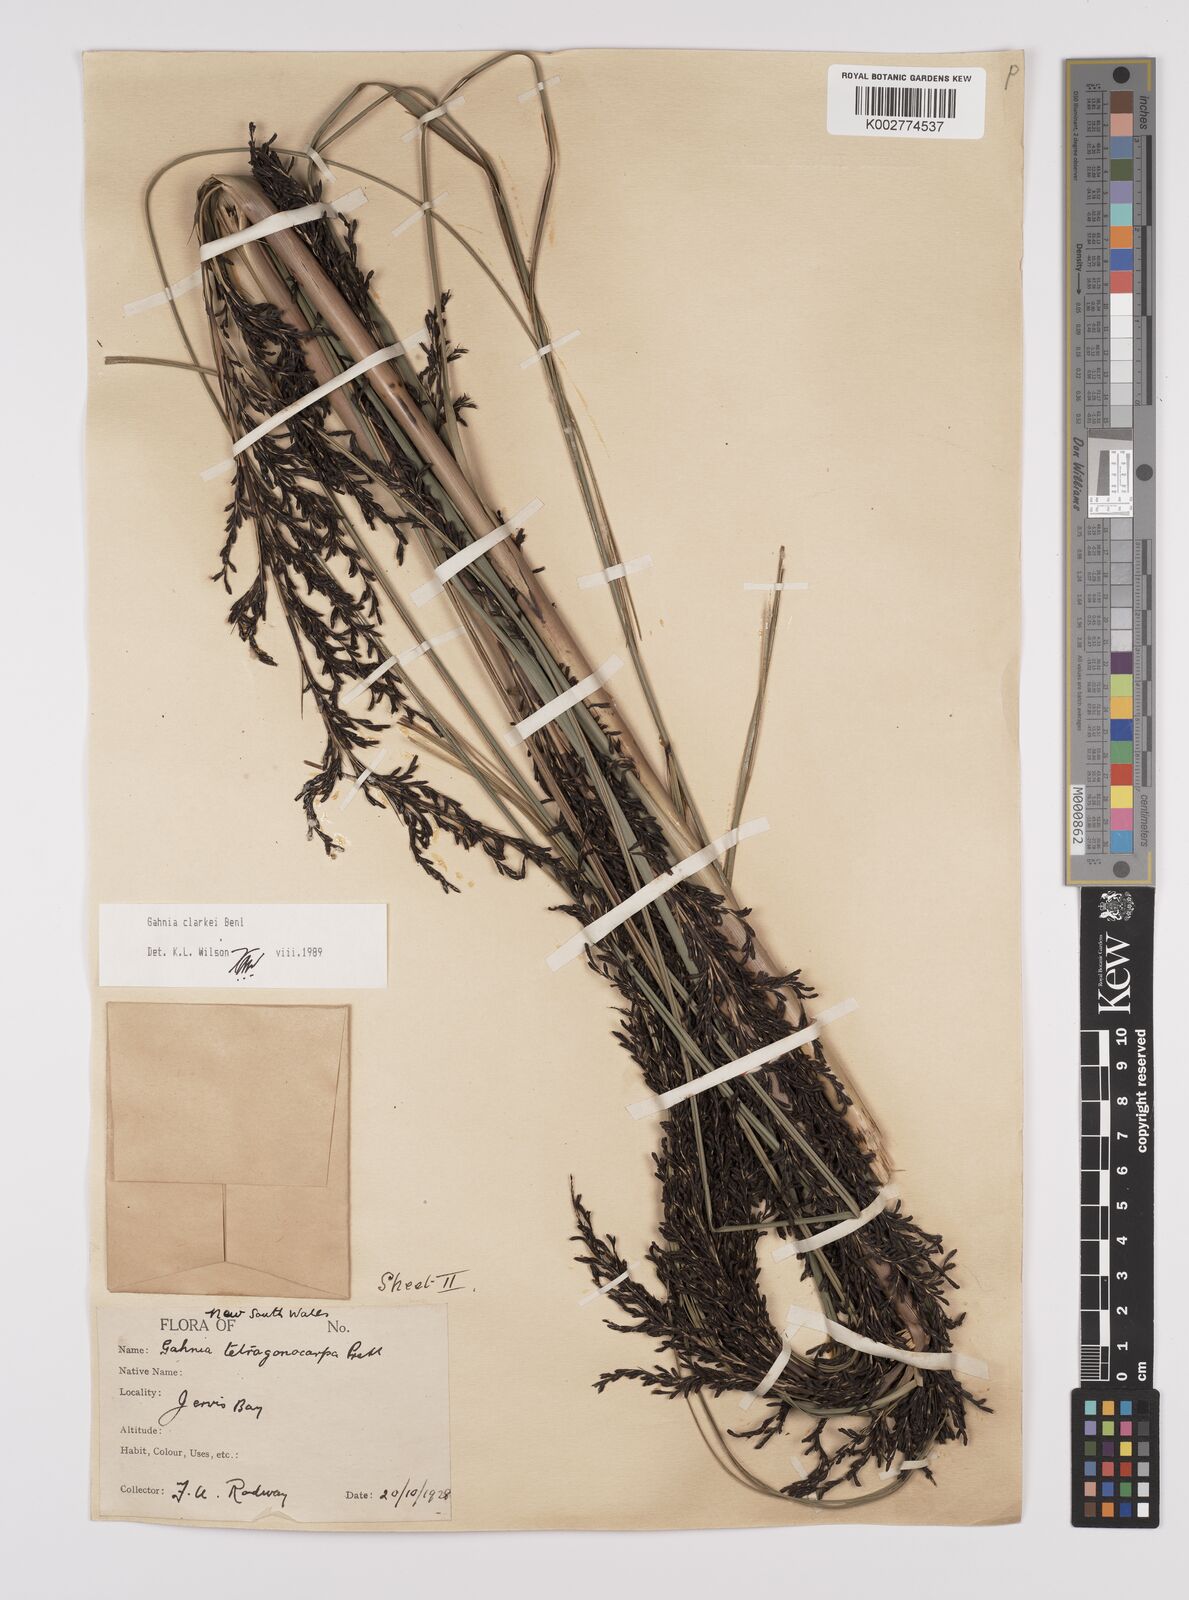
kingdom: Plantae
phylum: Tracheophyta
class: Liliopsida
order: Poales
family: Cyperaceae
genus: Gahnia
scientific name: Gahnia clarkei
